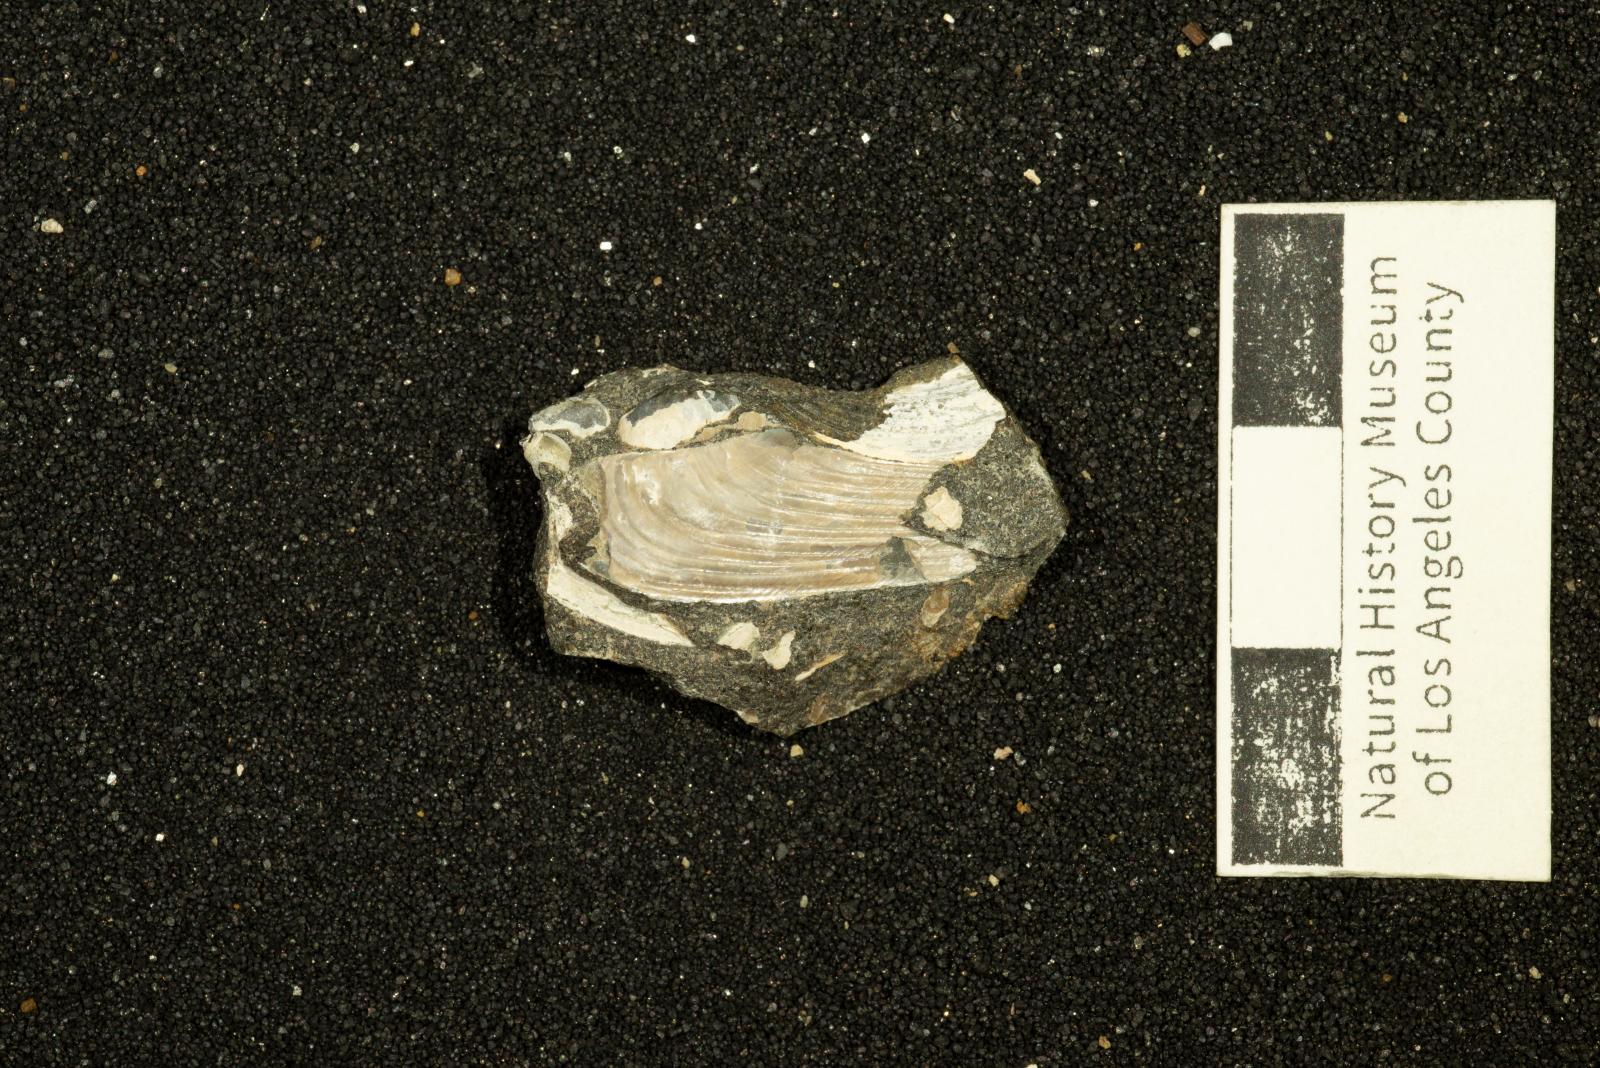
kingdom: Animalia
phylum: Mollusca
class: Bivalvia
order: Mytilida
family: Mytilidae
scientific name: Mytilidae
